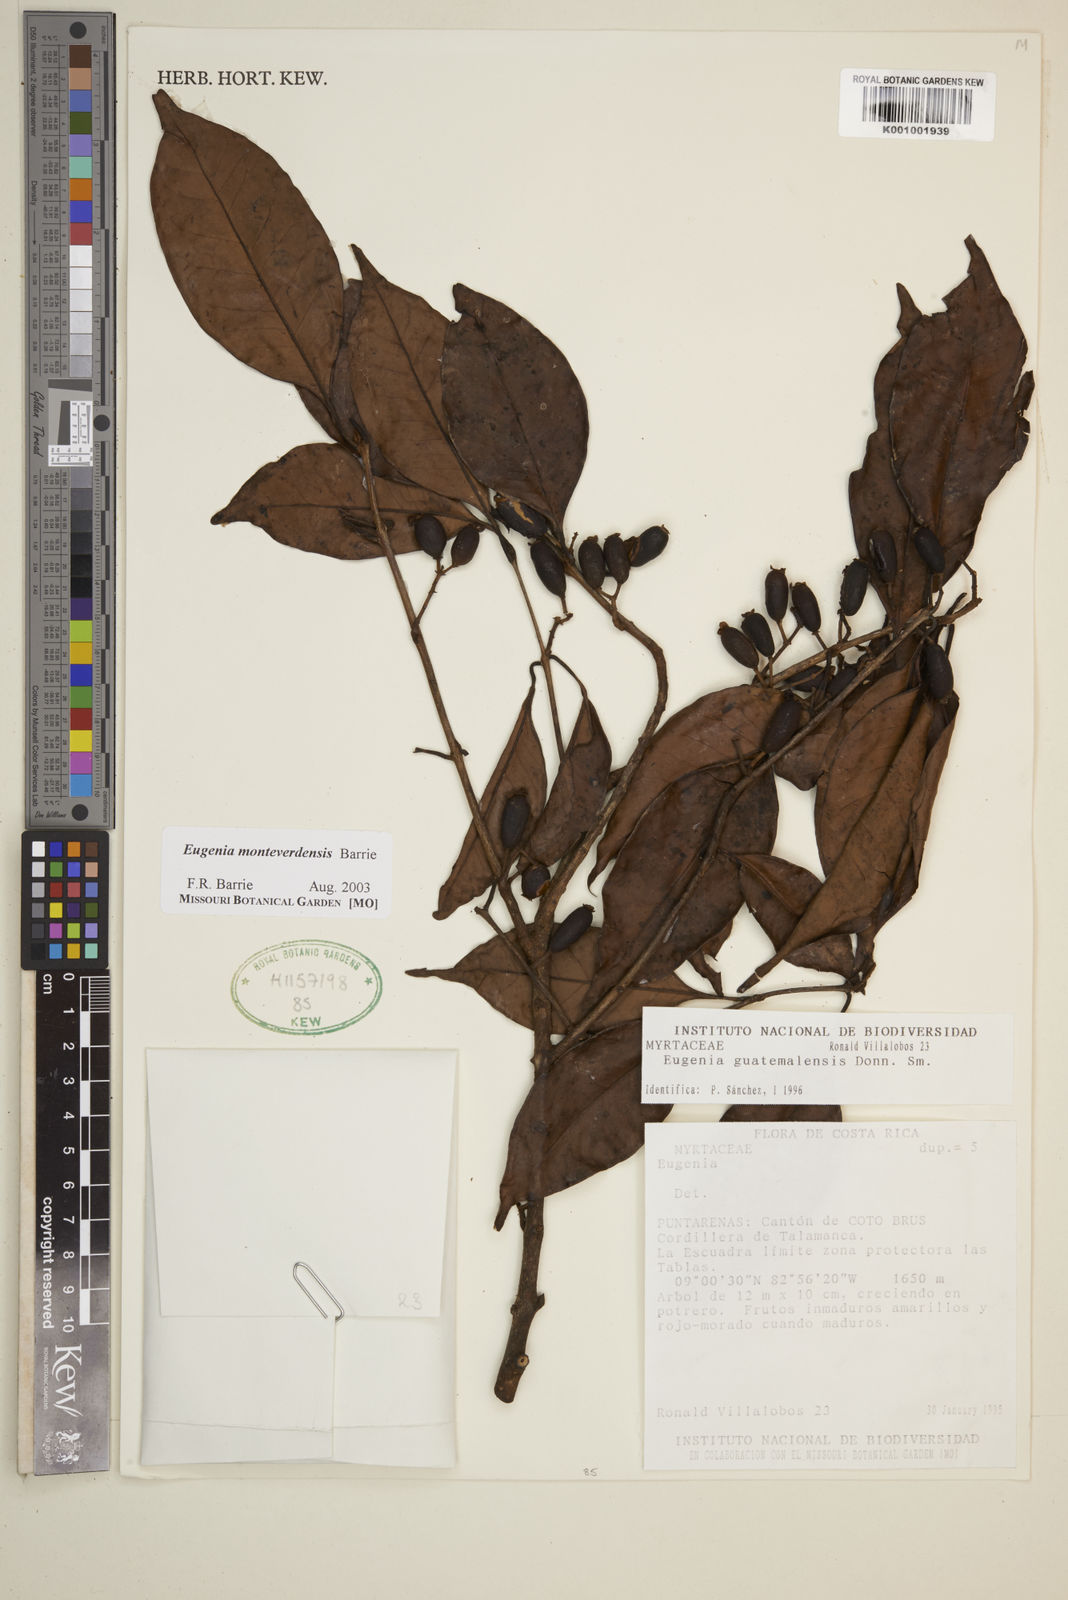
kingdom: Plantae
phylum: Tracheophyta
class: Magnoliopsida
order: Myrtales
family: Myrtaceae
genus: Eugenia
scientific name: Eugenia monteverdensis
